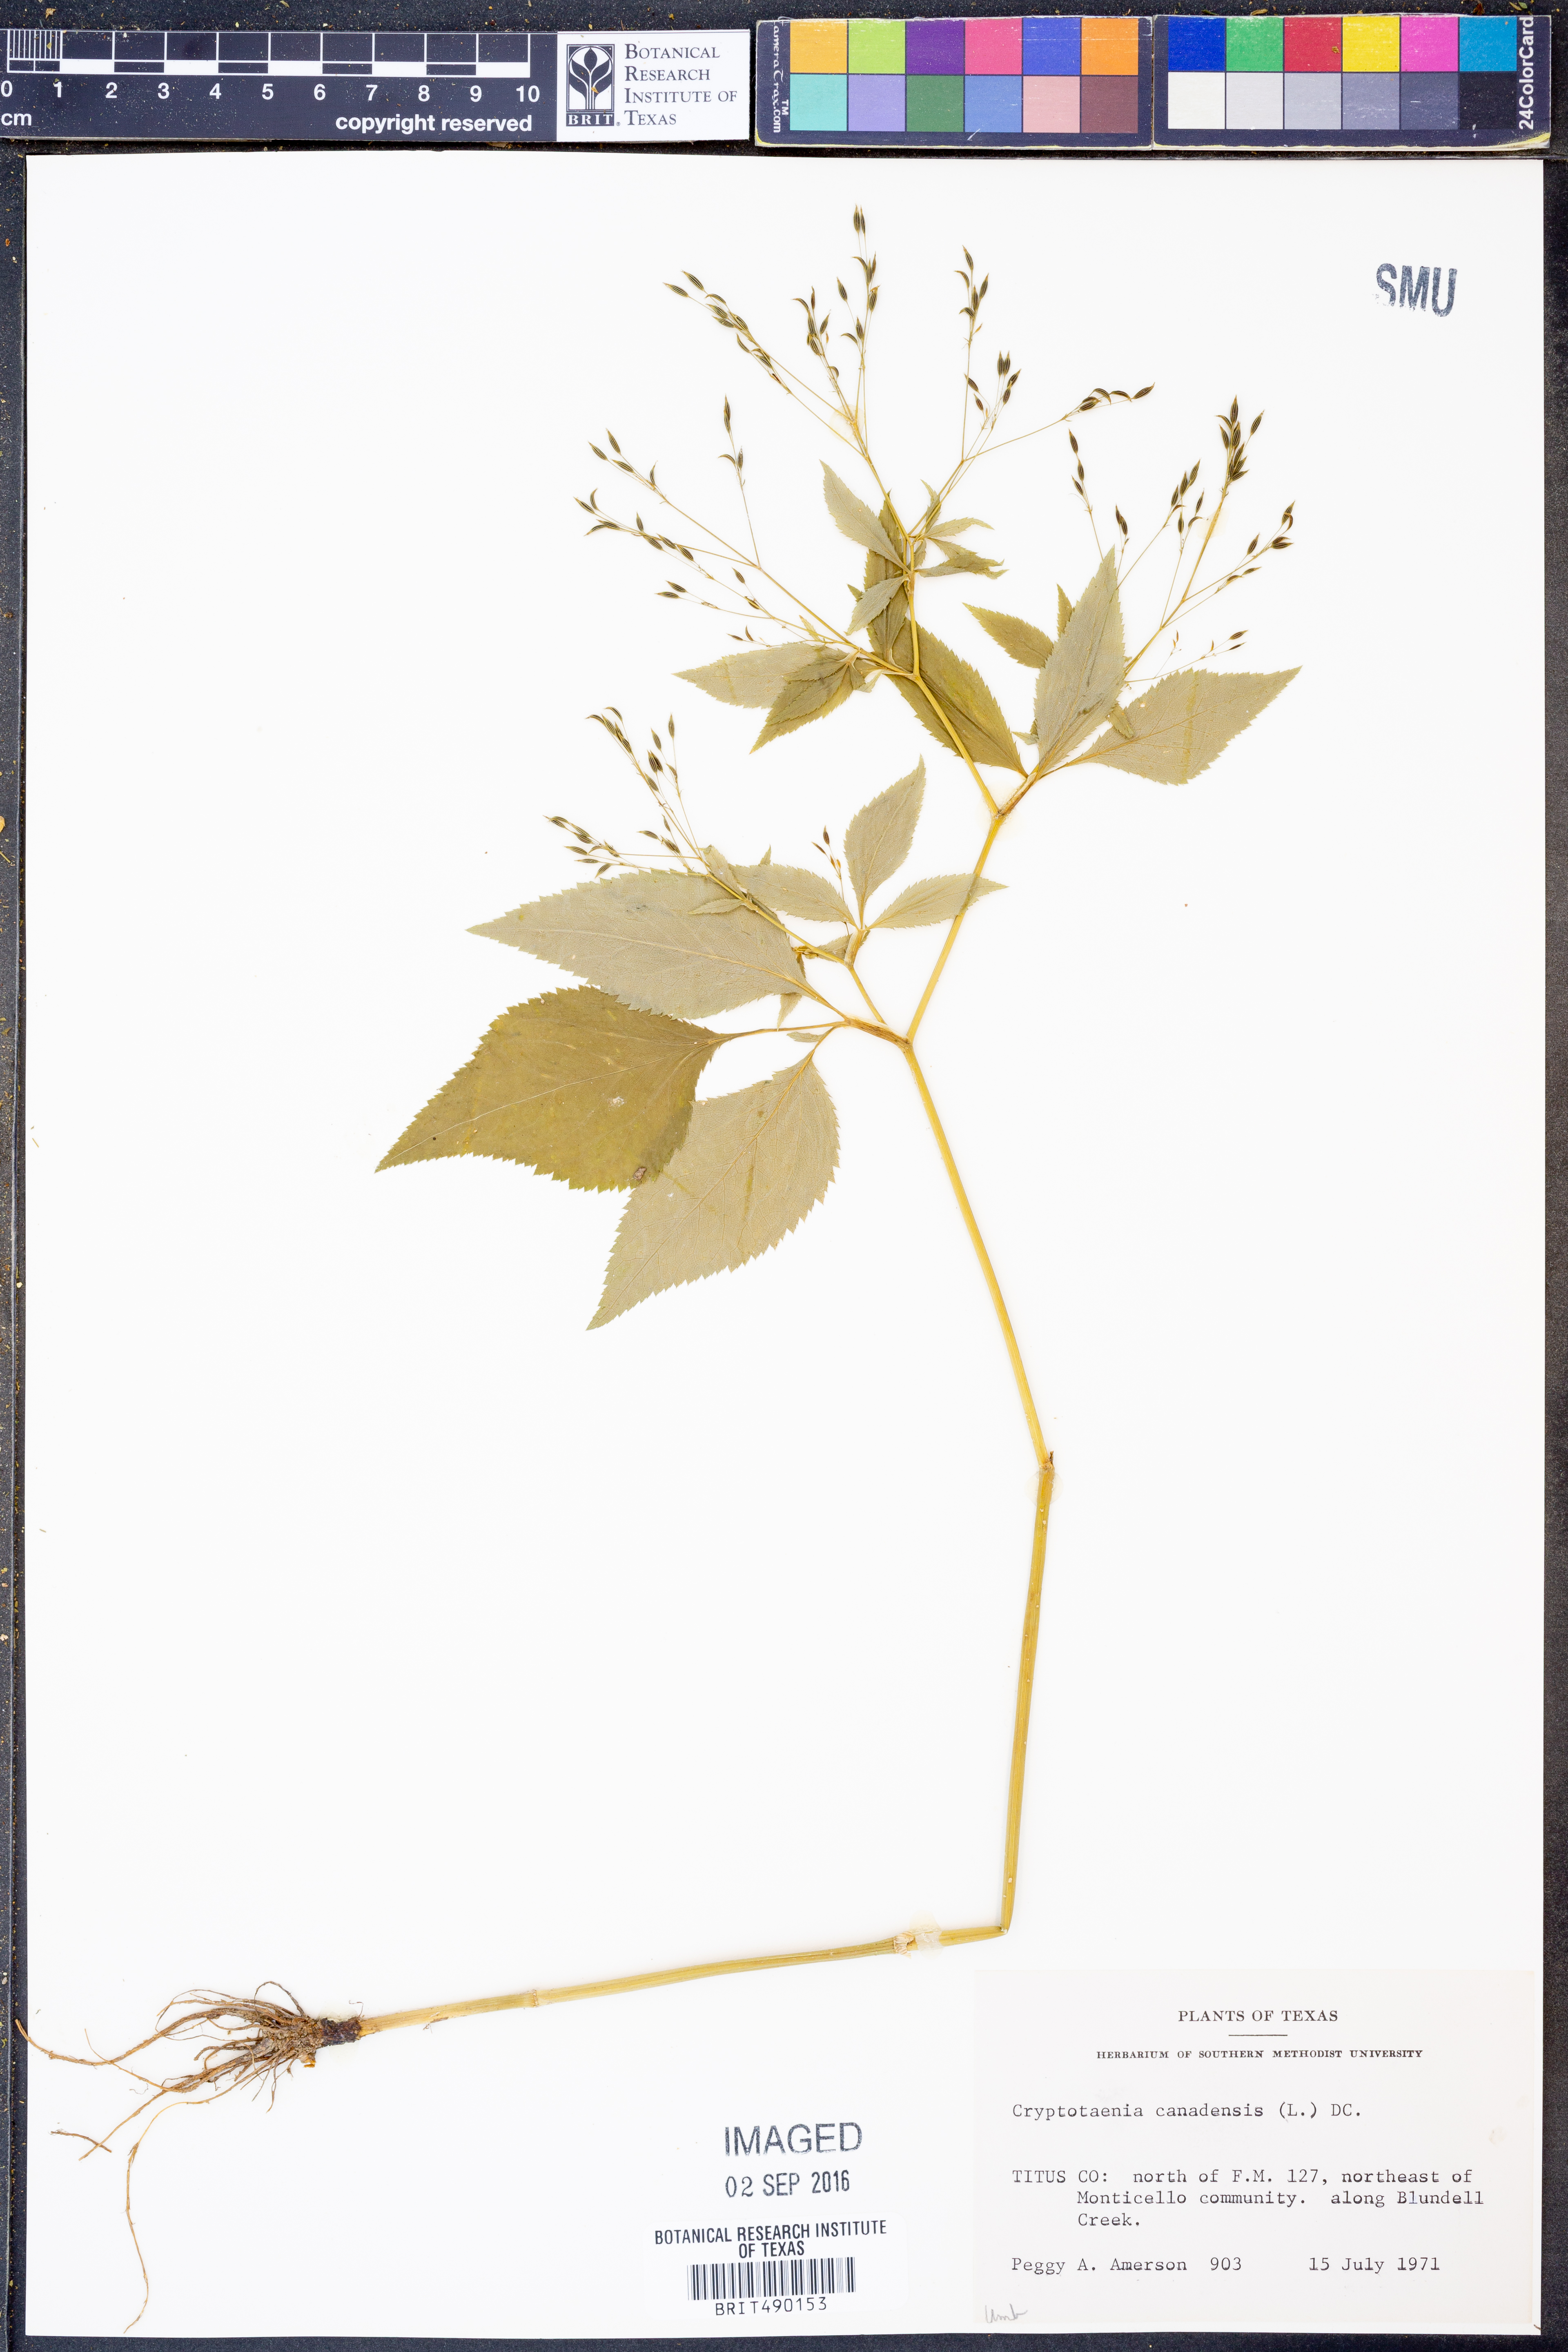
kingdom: Plantae
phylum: Tracheophyta
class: Magnoliopsida
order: Apiales
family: Apiaceae
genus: Cryptotaenia
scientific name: Cryptotaenia canadensis
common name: Honewort
